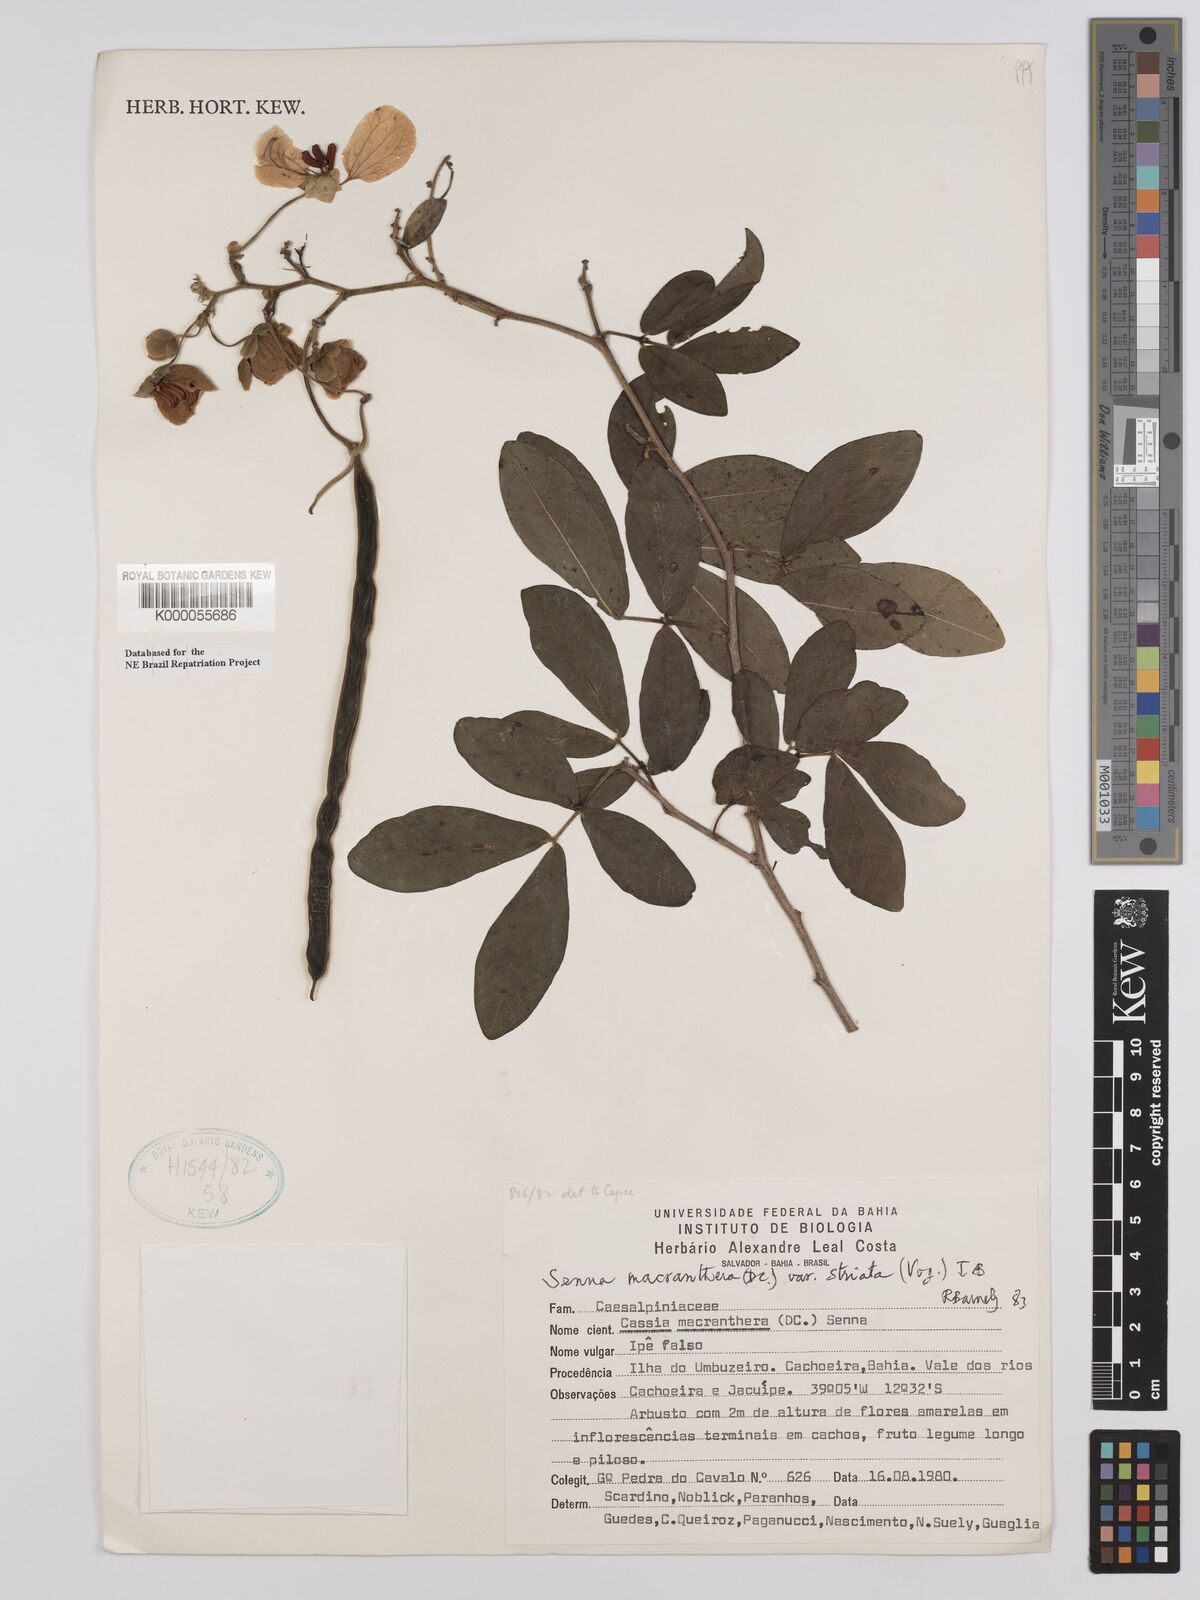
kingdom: Plantae
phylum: Tracheophyta
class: Magnoliopsida
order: Fabales
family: Fabaceae
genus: Senna
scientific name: Senna macranthera
